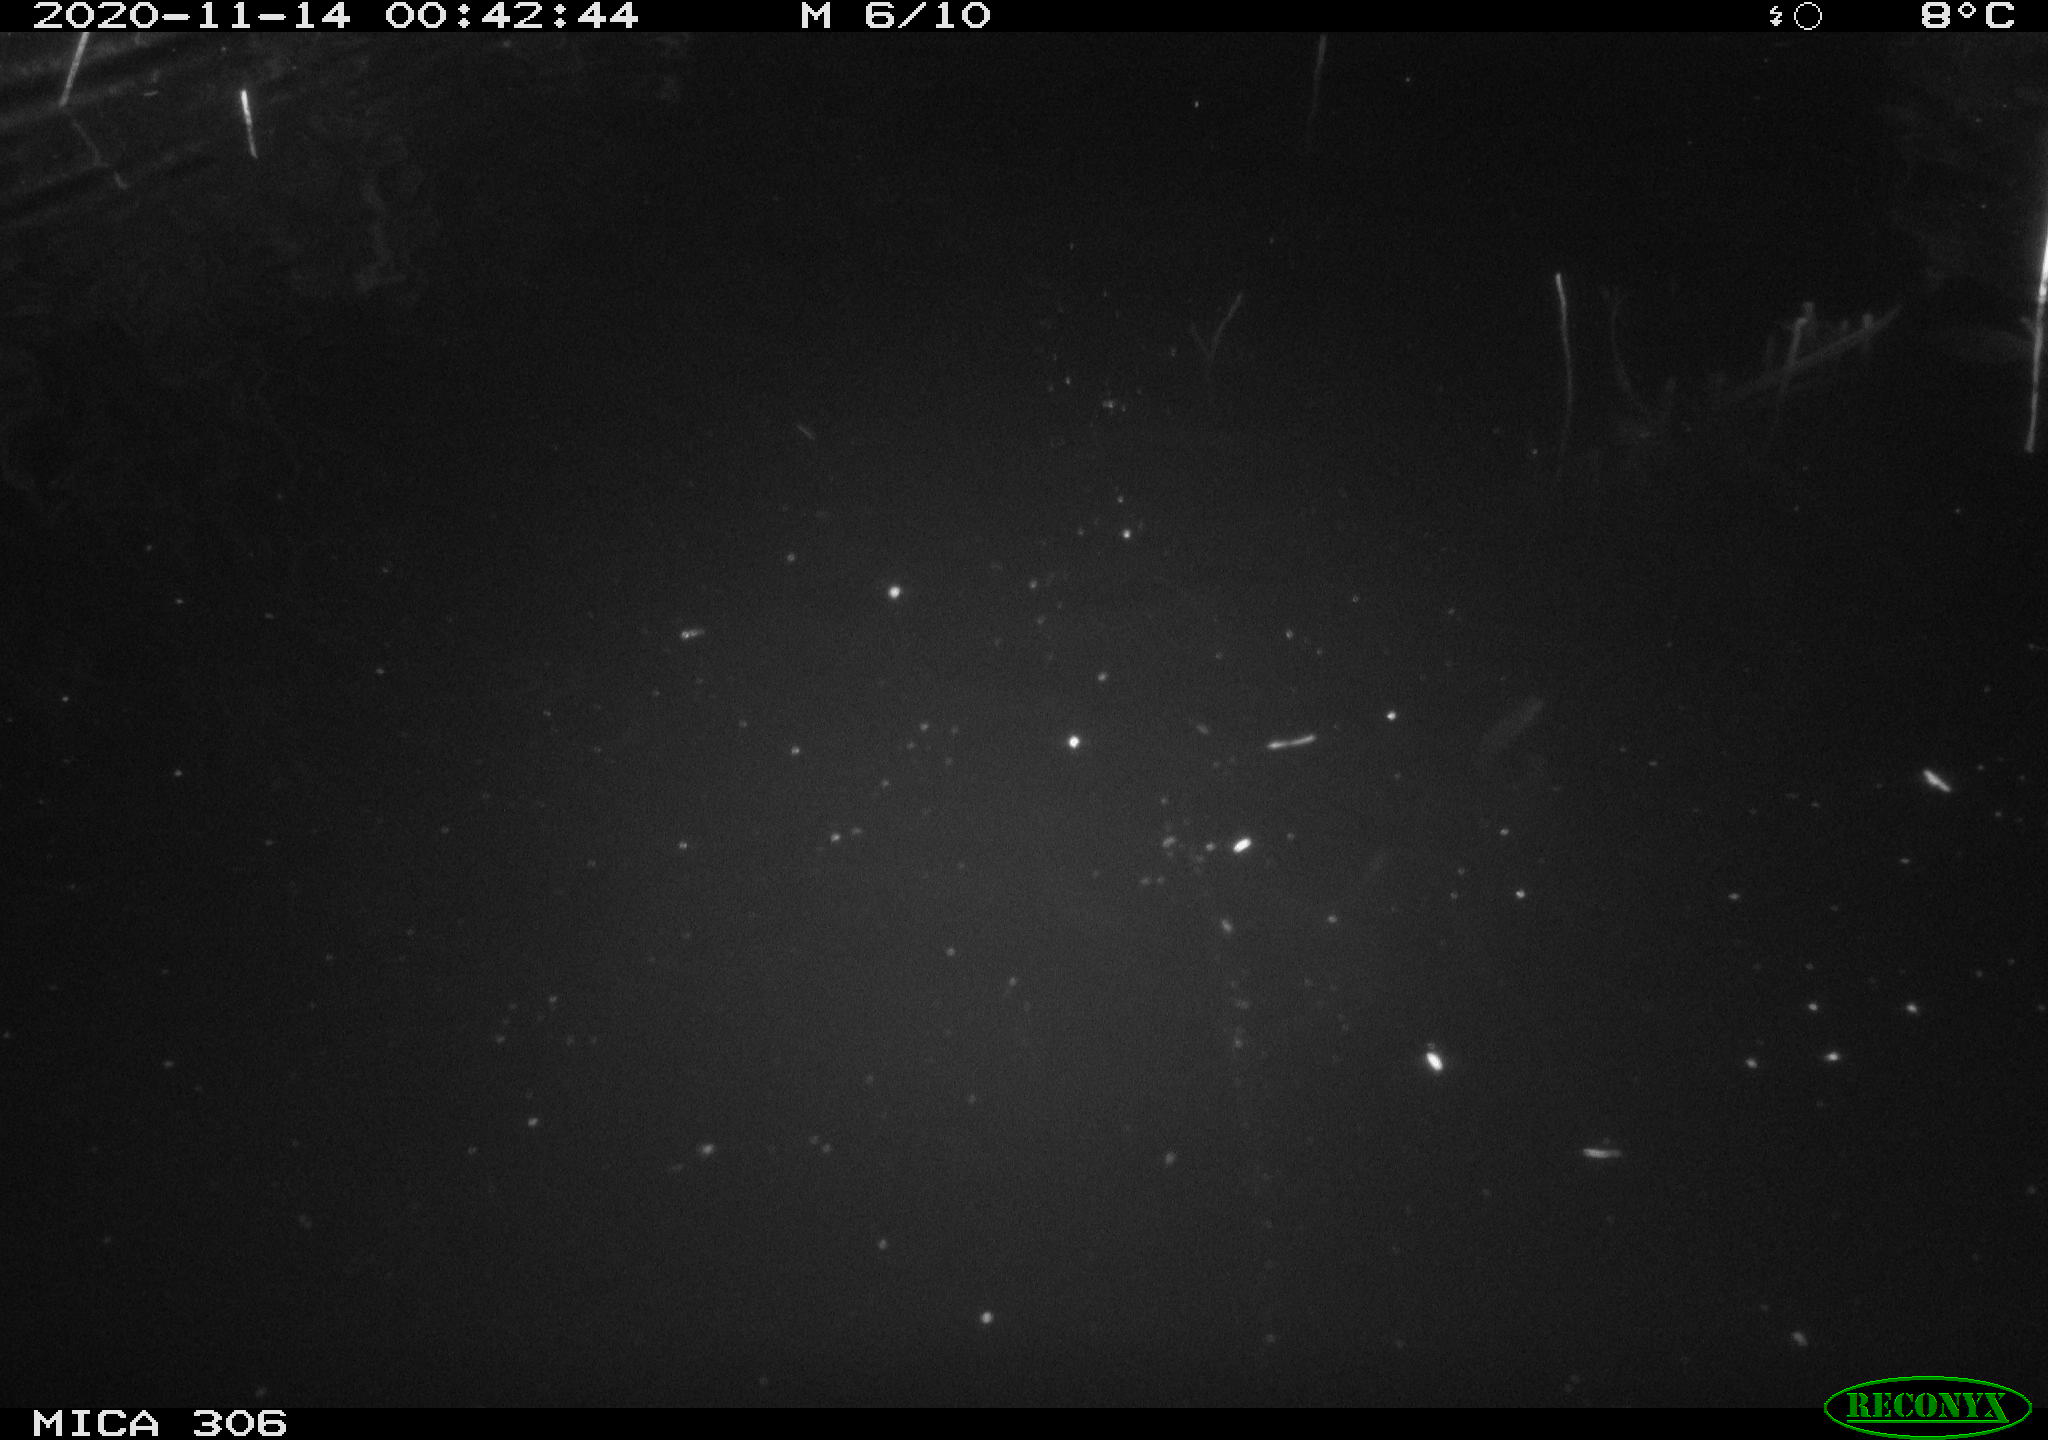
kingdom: Animalia
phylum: Chordata
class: Mammalia
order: Rodentia
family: Cricetidae
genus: Ondatra
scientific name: Ondatra zibethicus
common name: Muskrat
